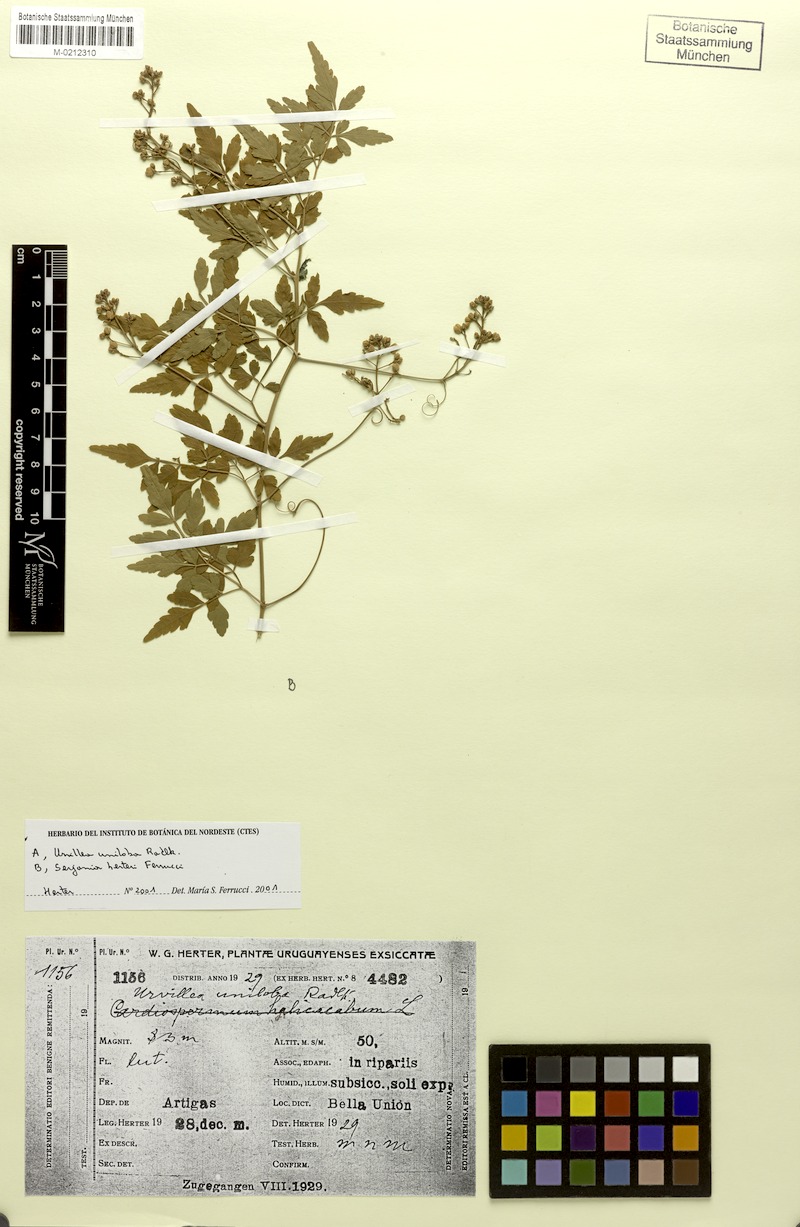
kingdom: Plantae
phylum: Tracheophyta
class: Magnoliopsida
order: Sapindales
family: Sapindaceae
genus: Serjania
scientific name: Serjania herteri
